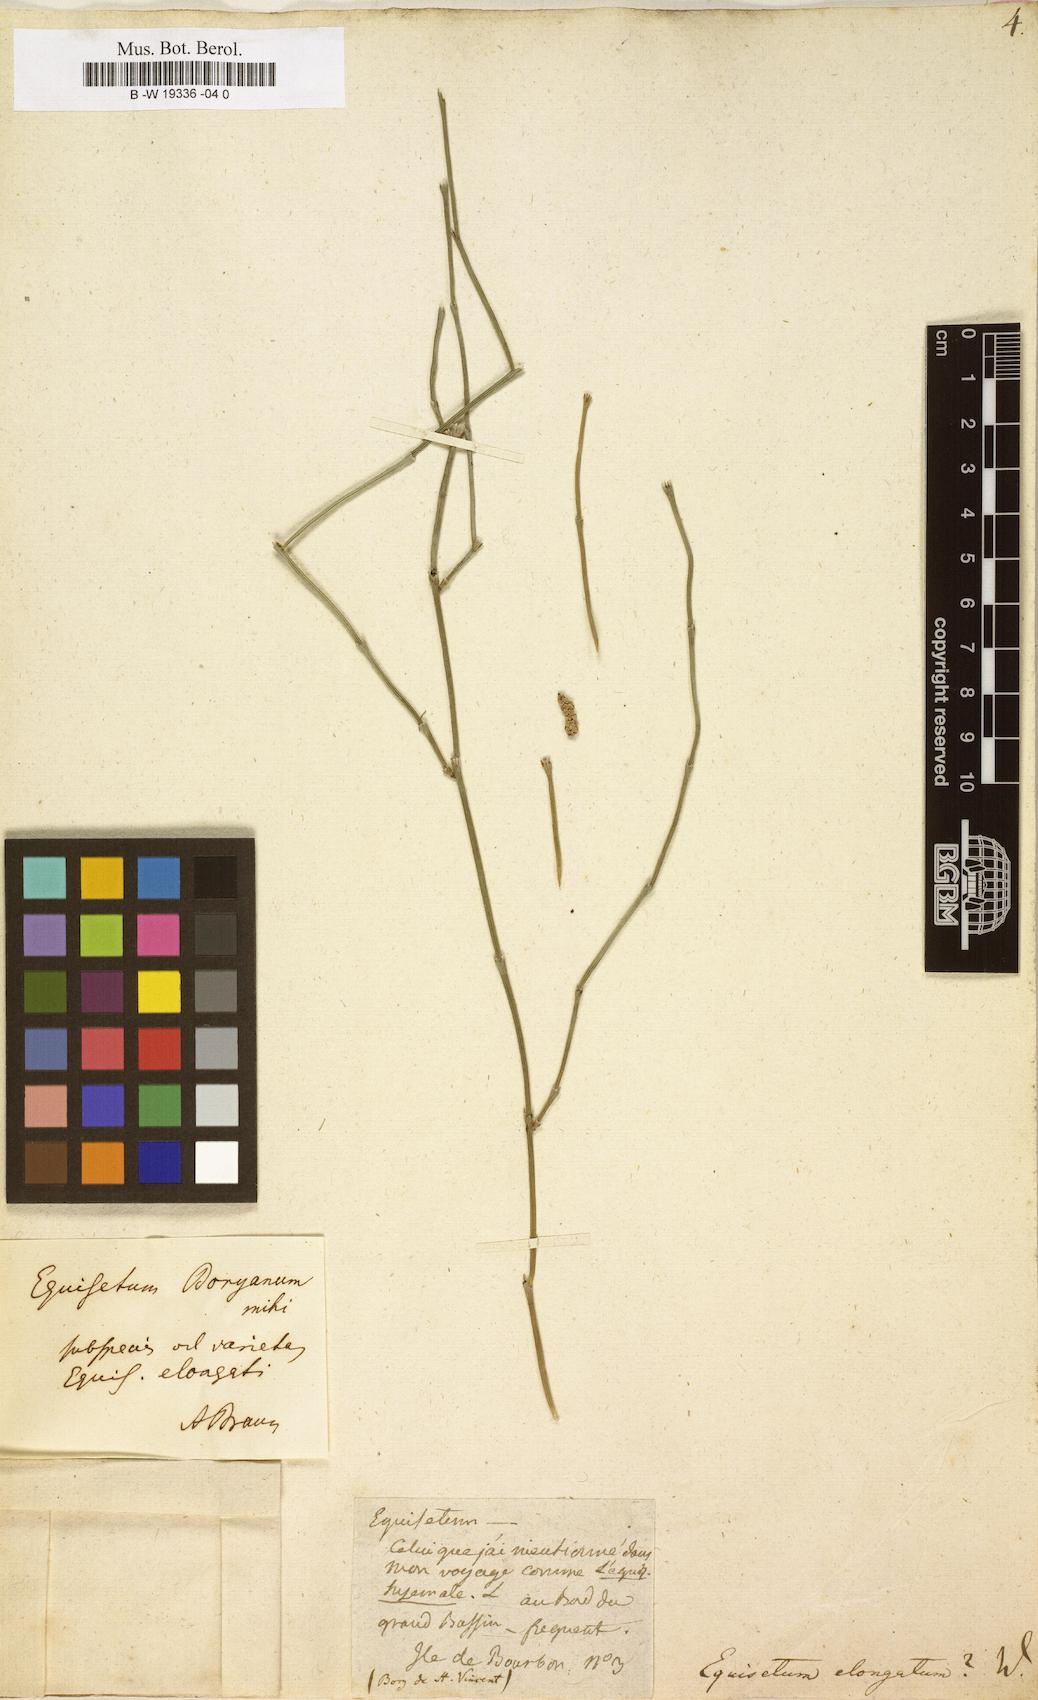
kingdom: Plantae
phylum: Tracheophyta
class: Polypodiopsida
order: Equisetales
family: Equisetaceae
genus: Equisetum
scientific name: Equisetum ramosissimum
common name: Branched horsetail
